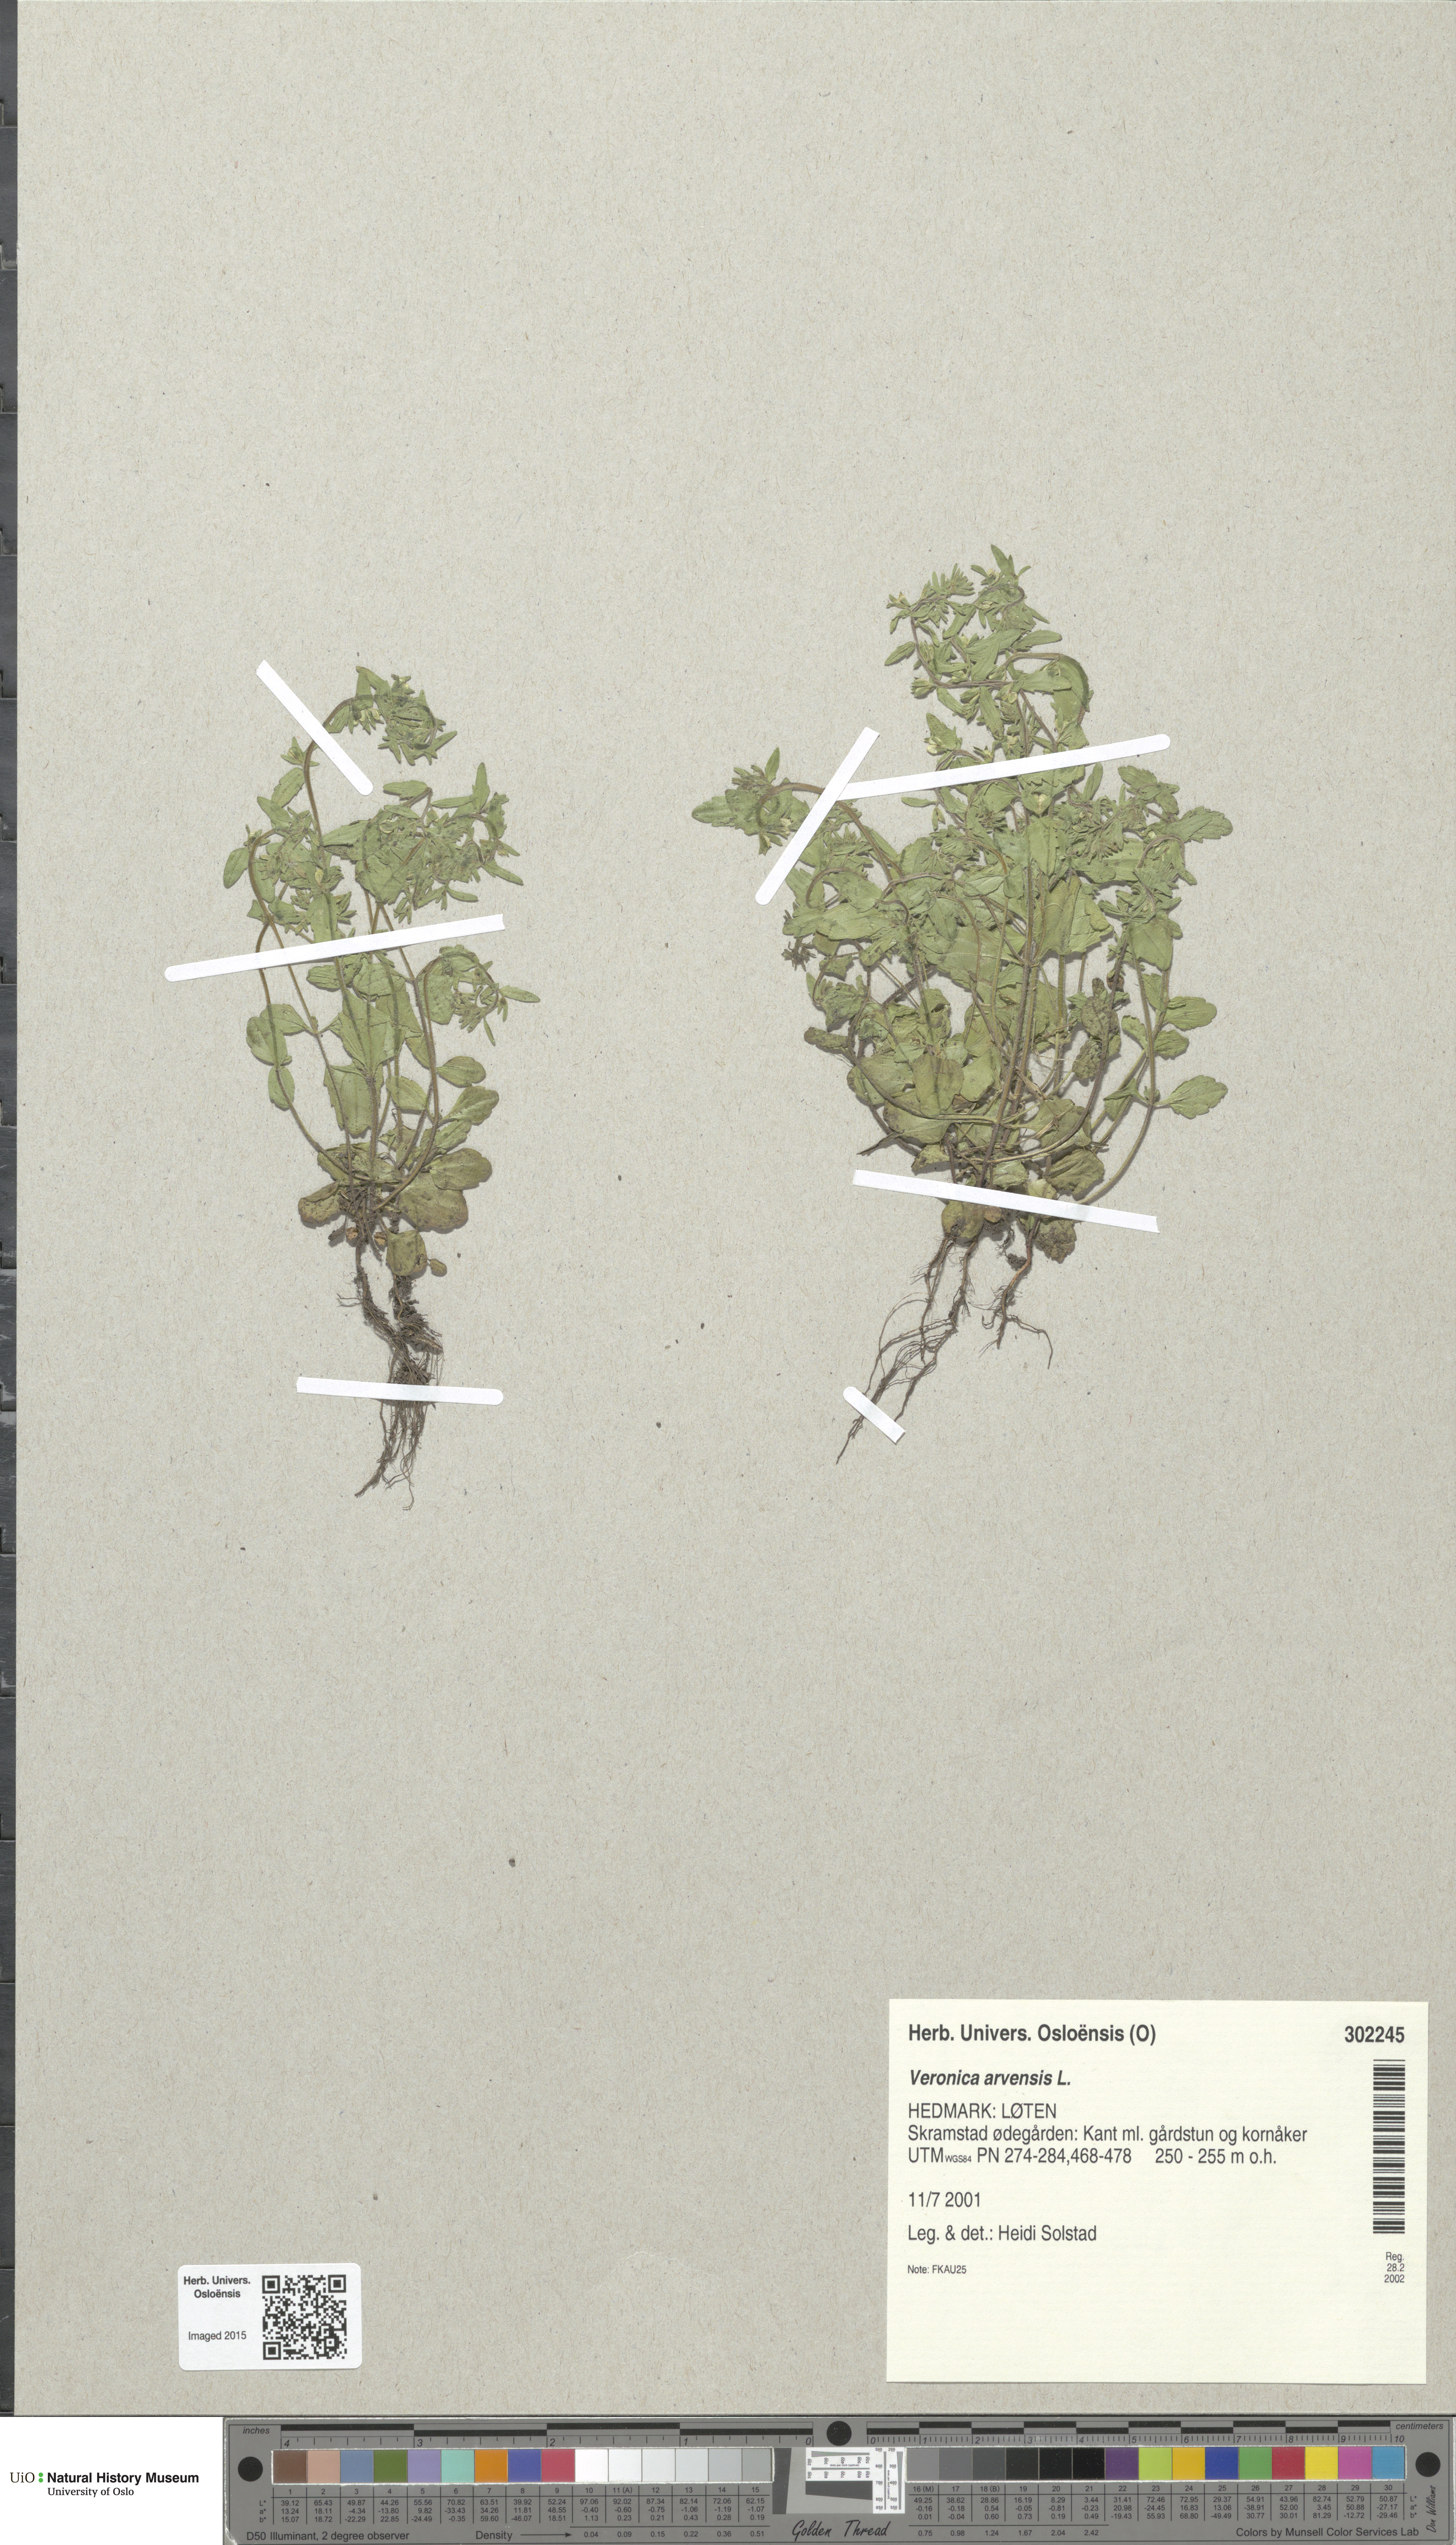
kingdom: Plantae
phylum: Tracheophyta
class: Magnoliopsida
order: Lamiales
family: Plantaginaceae
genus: Veronica
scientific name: Veronica arvensis
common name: Corn speedwell
